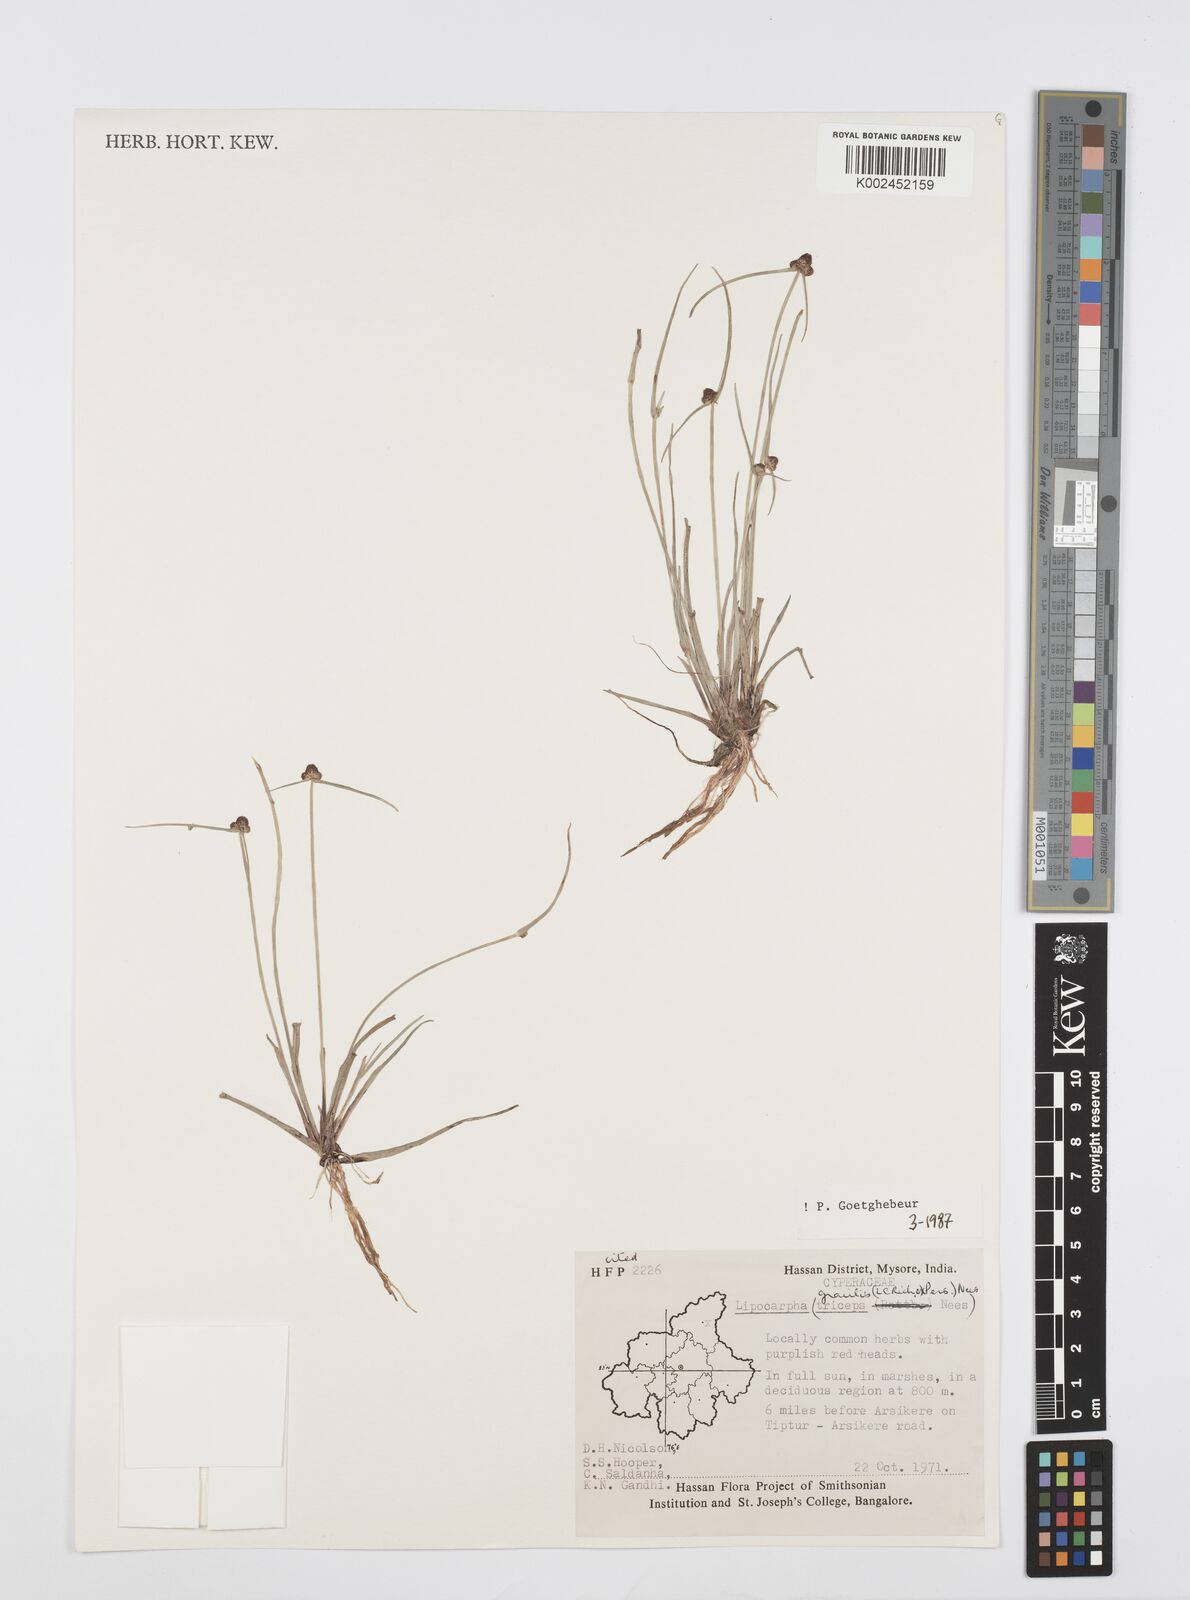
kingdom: Plantae
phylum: Tracheophyta
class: Liliopsida
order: Poales
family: Cyperaceae
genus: Cyperus
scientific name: Cyperus sphacelatus
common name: Roadside flatsedge
